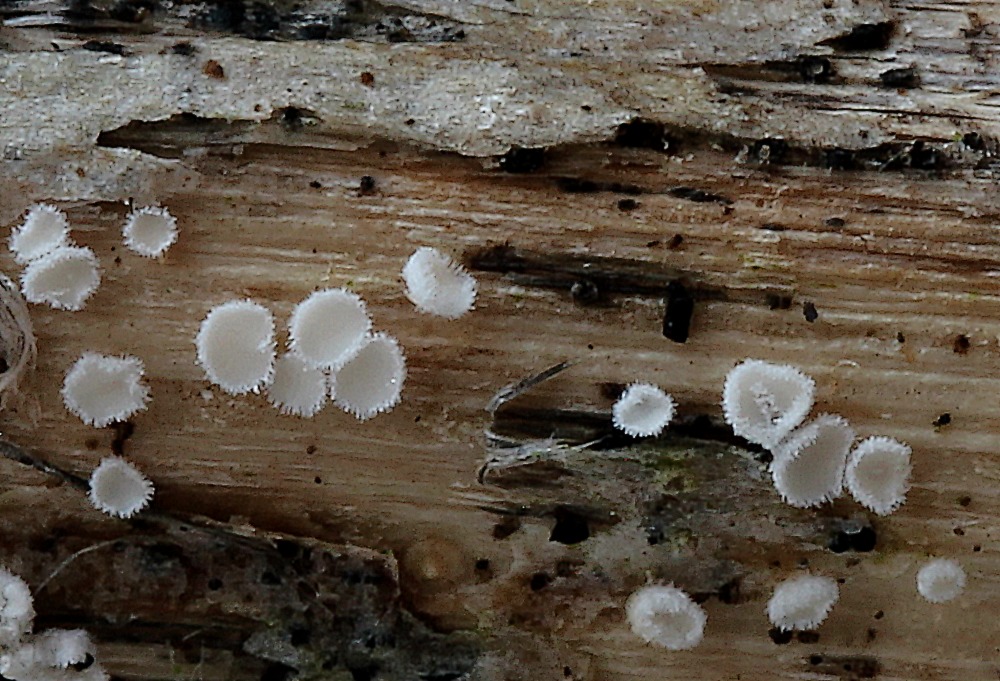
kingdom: Fungi
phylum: Basidiomycota
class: Agaricomycetes
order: Agaricales
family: Niaceae
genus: Lachnella
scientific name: Lachnella villosa
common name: hvid frynserede
